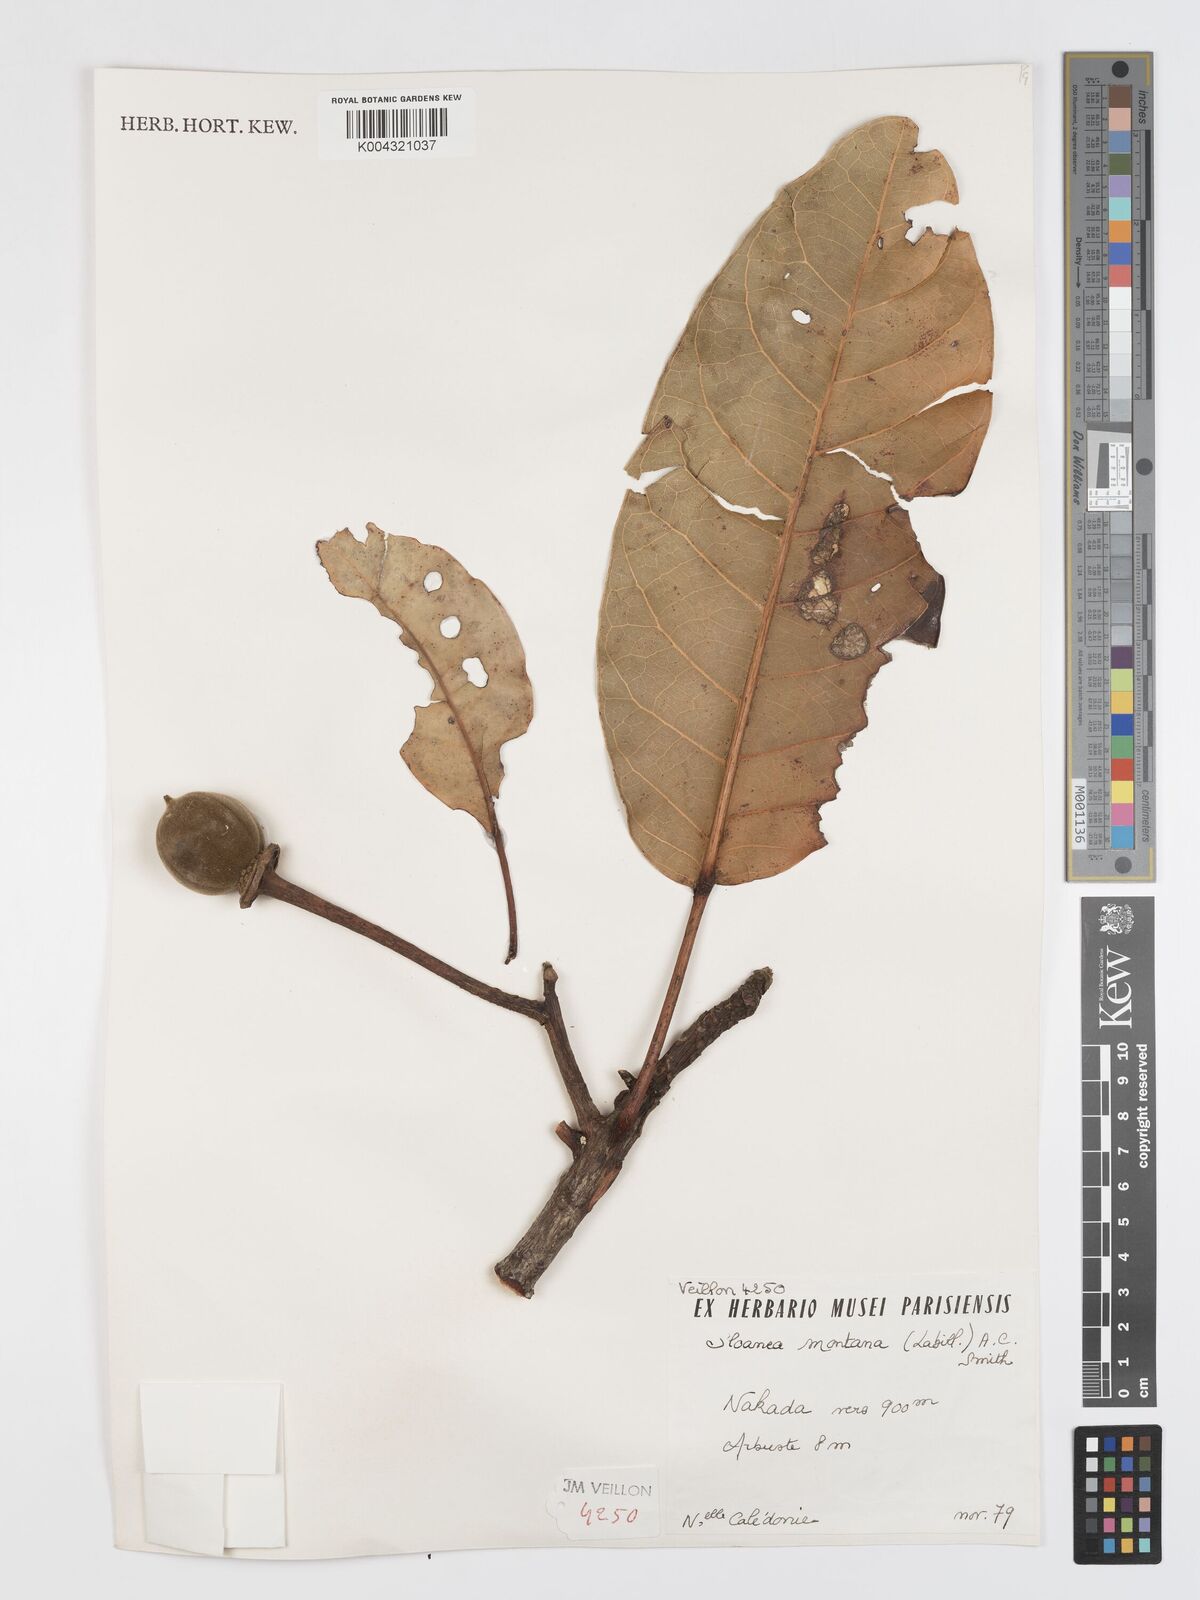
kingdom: Plantae
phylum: Tracheophyta
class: Magnoliopsida
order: Oxalidales
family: Elaeocarpaceae
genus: Sloanea
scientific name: Sloanea montana
